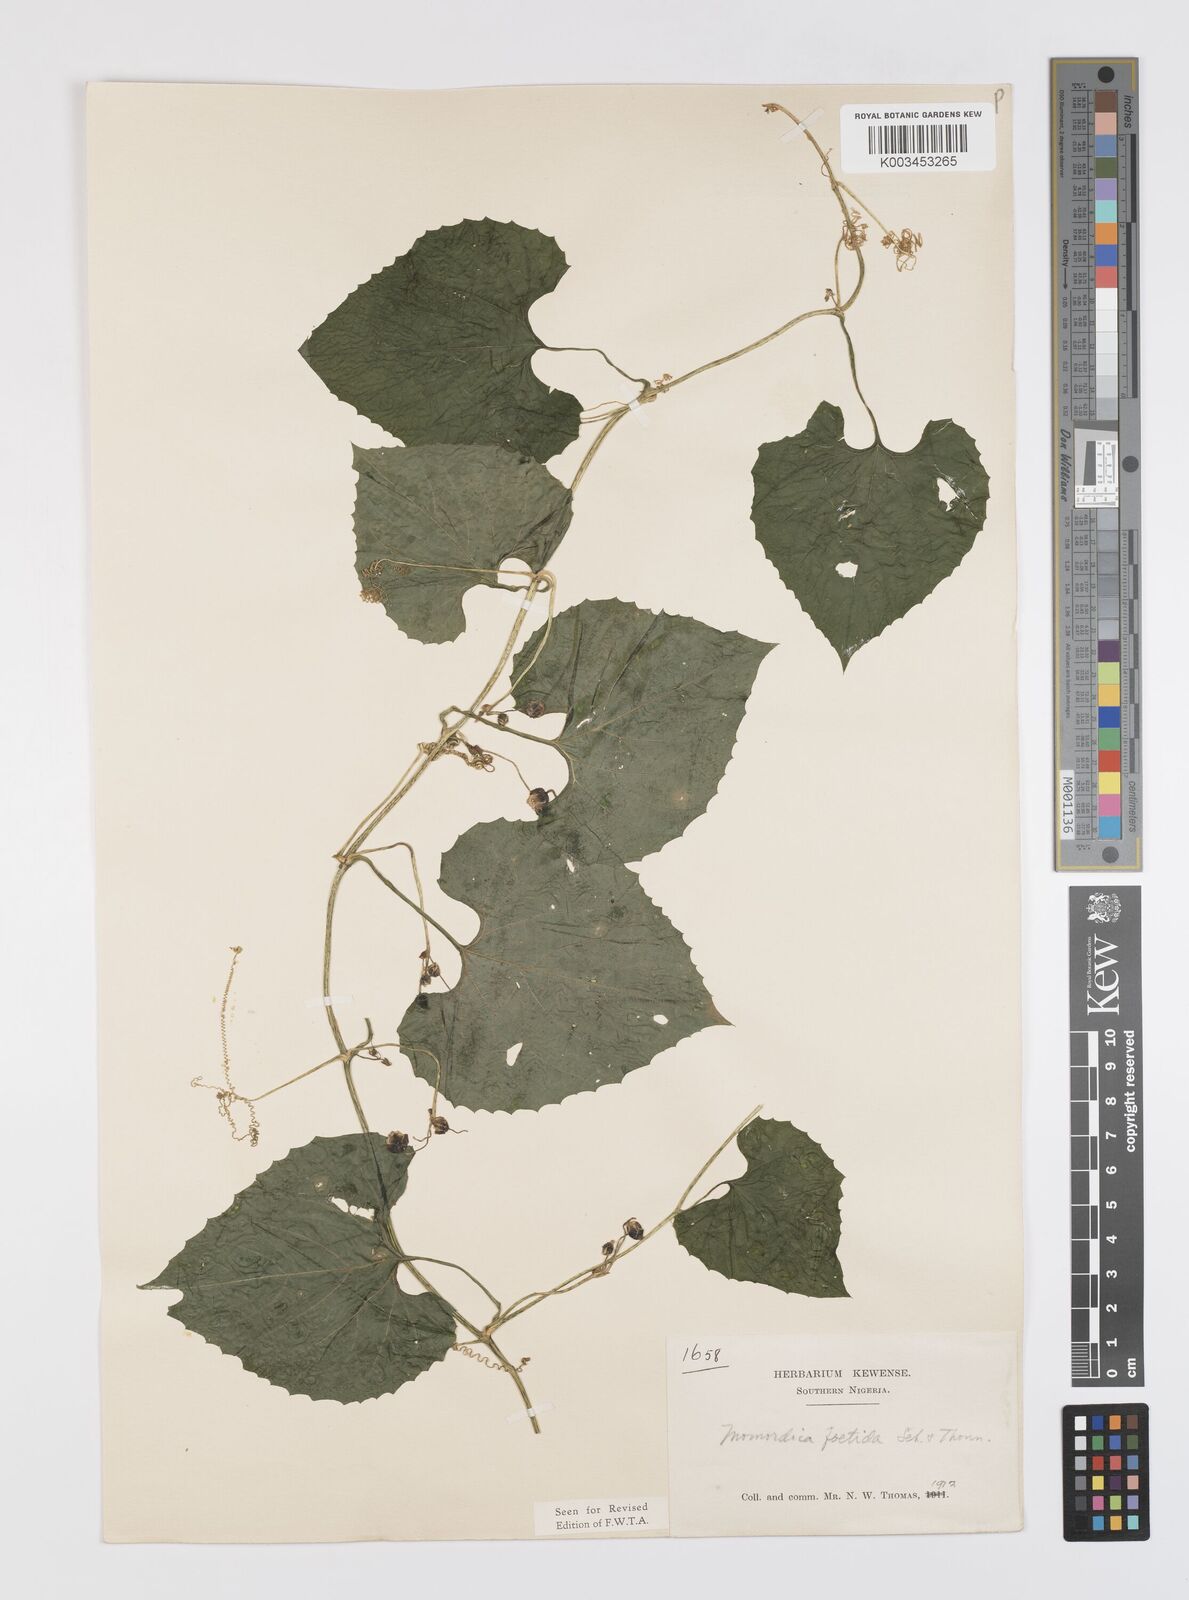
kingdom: Plantae
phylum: Tracheophyta
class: Magnoliopsida
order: Cucurbitales
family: Cucurbitaceae
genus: Momordica
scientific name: Momordica foetida
